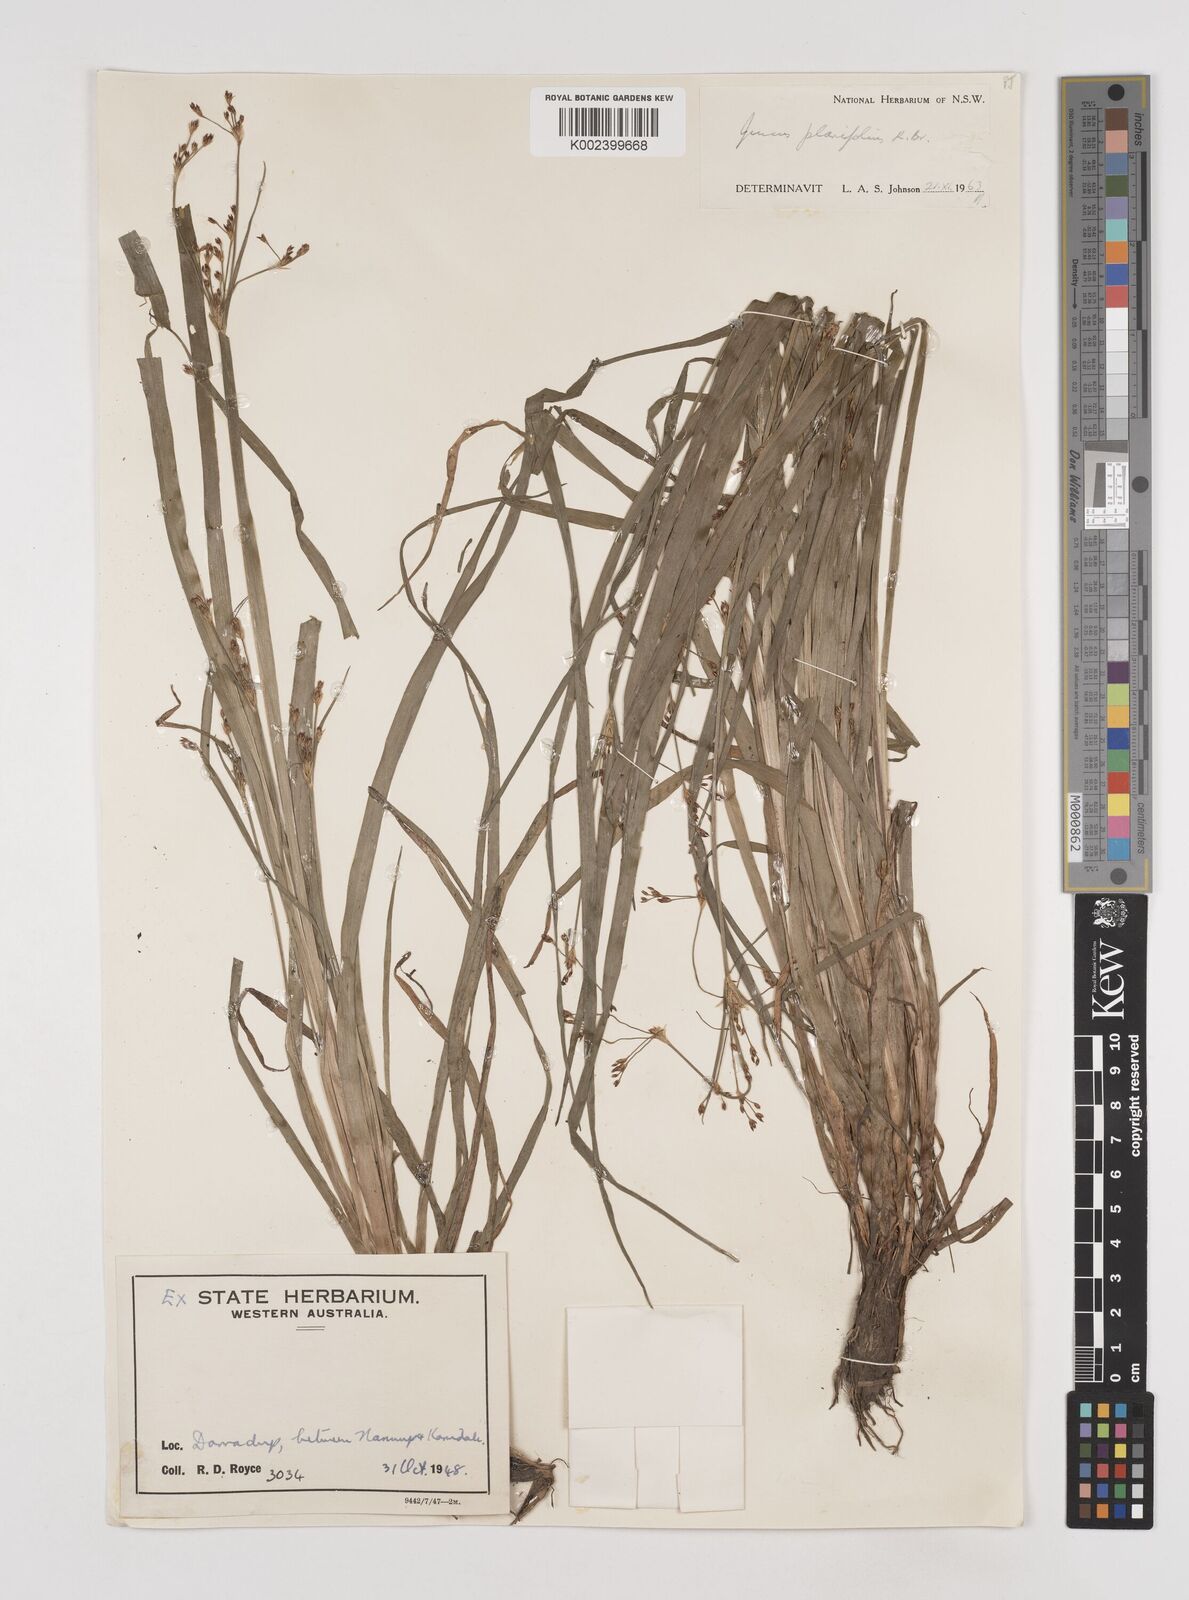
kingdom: Plantae
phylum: Tracheophyta
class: Liliopsida
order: Poales
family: Juncaceae
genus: Juncus
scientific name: Juncus planifolius
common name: Broadleaf rush
